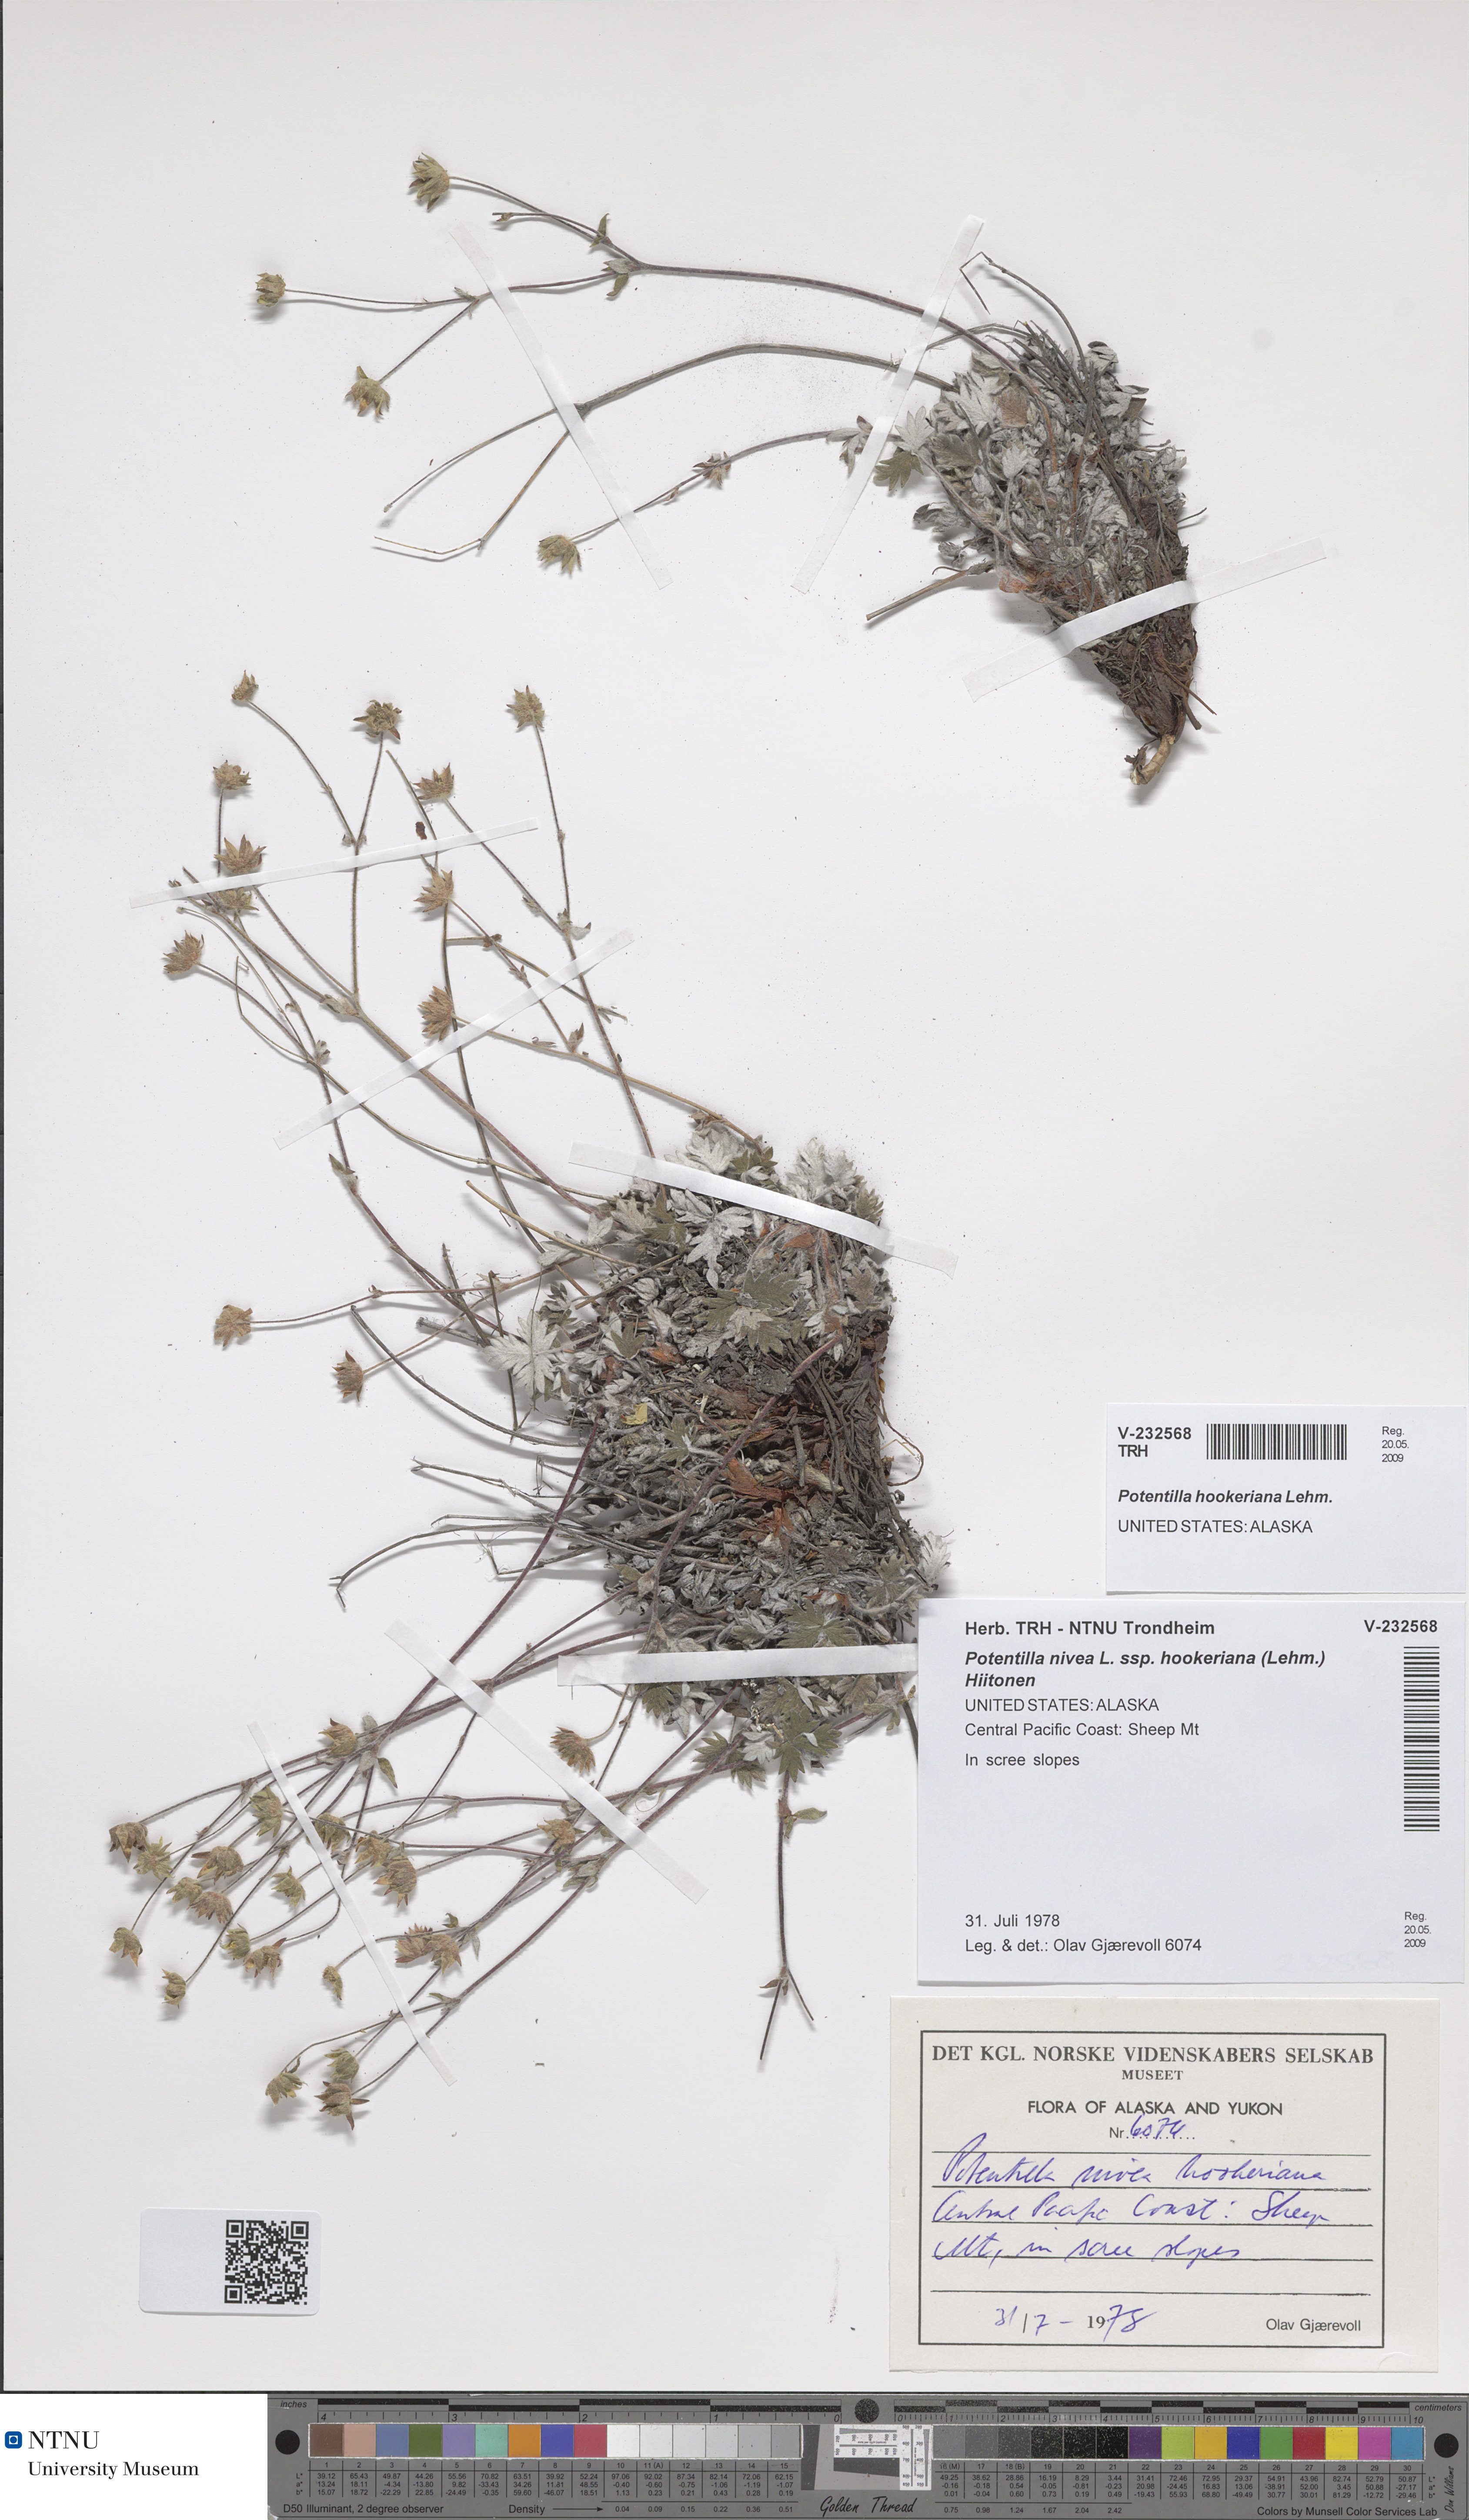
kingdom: Plantae
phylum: Tracheophyta
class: Magnoliopsida
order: Rosales
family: Rosaceae
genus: Potentilla
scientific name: Potentilla hookeriana
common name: Hooker's cinquefoil
